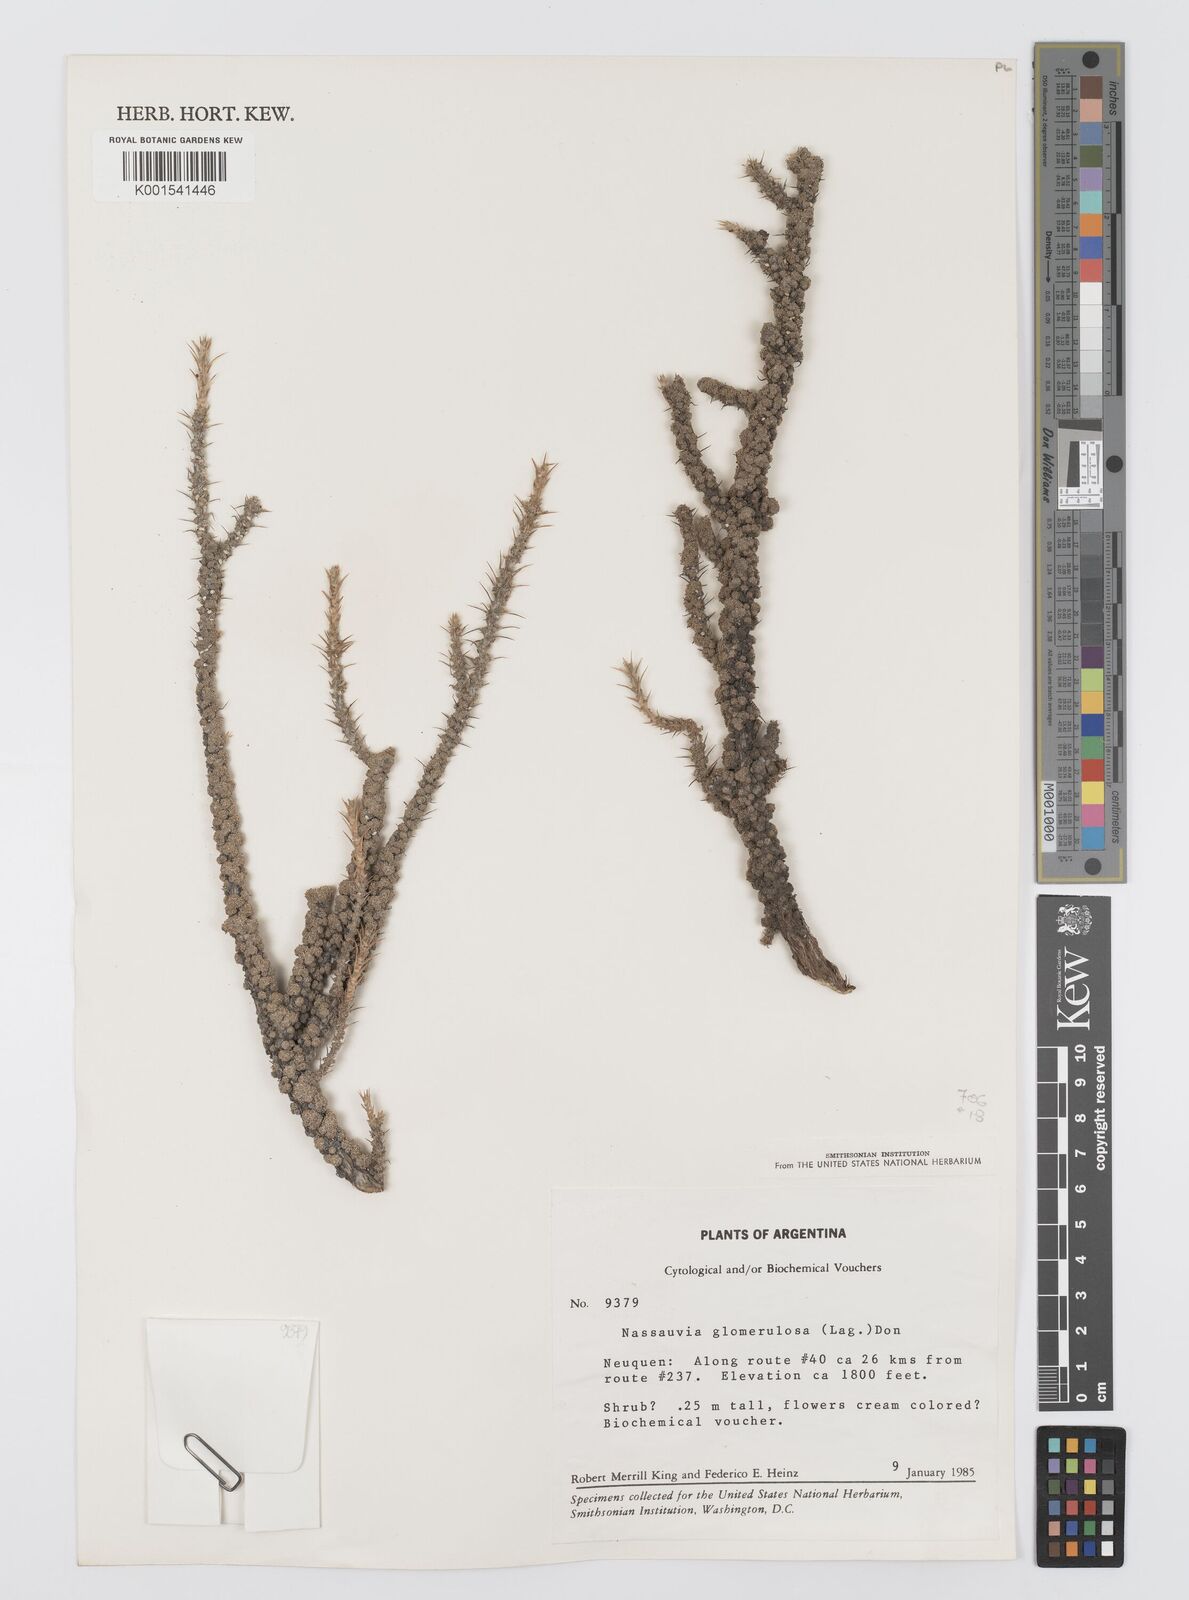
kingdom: Plantae
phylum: Tracheophyta
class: Magnoliopsida
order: Asterales
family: Asteraceae
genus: Nassauvia
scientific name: Nassauvia glomerulosa
